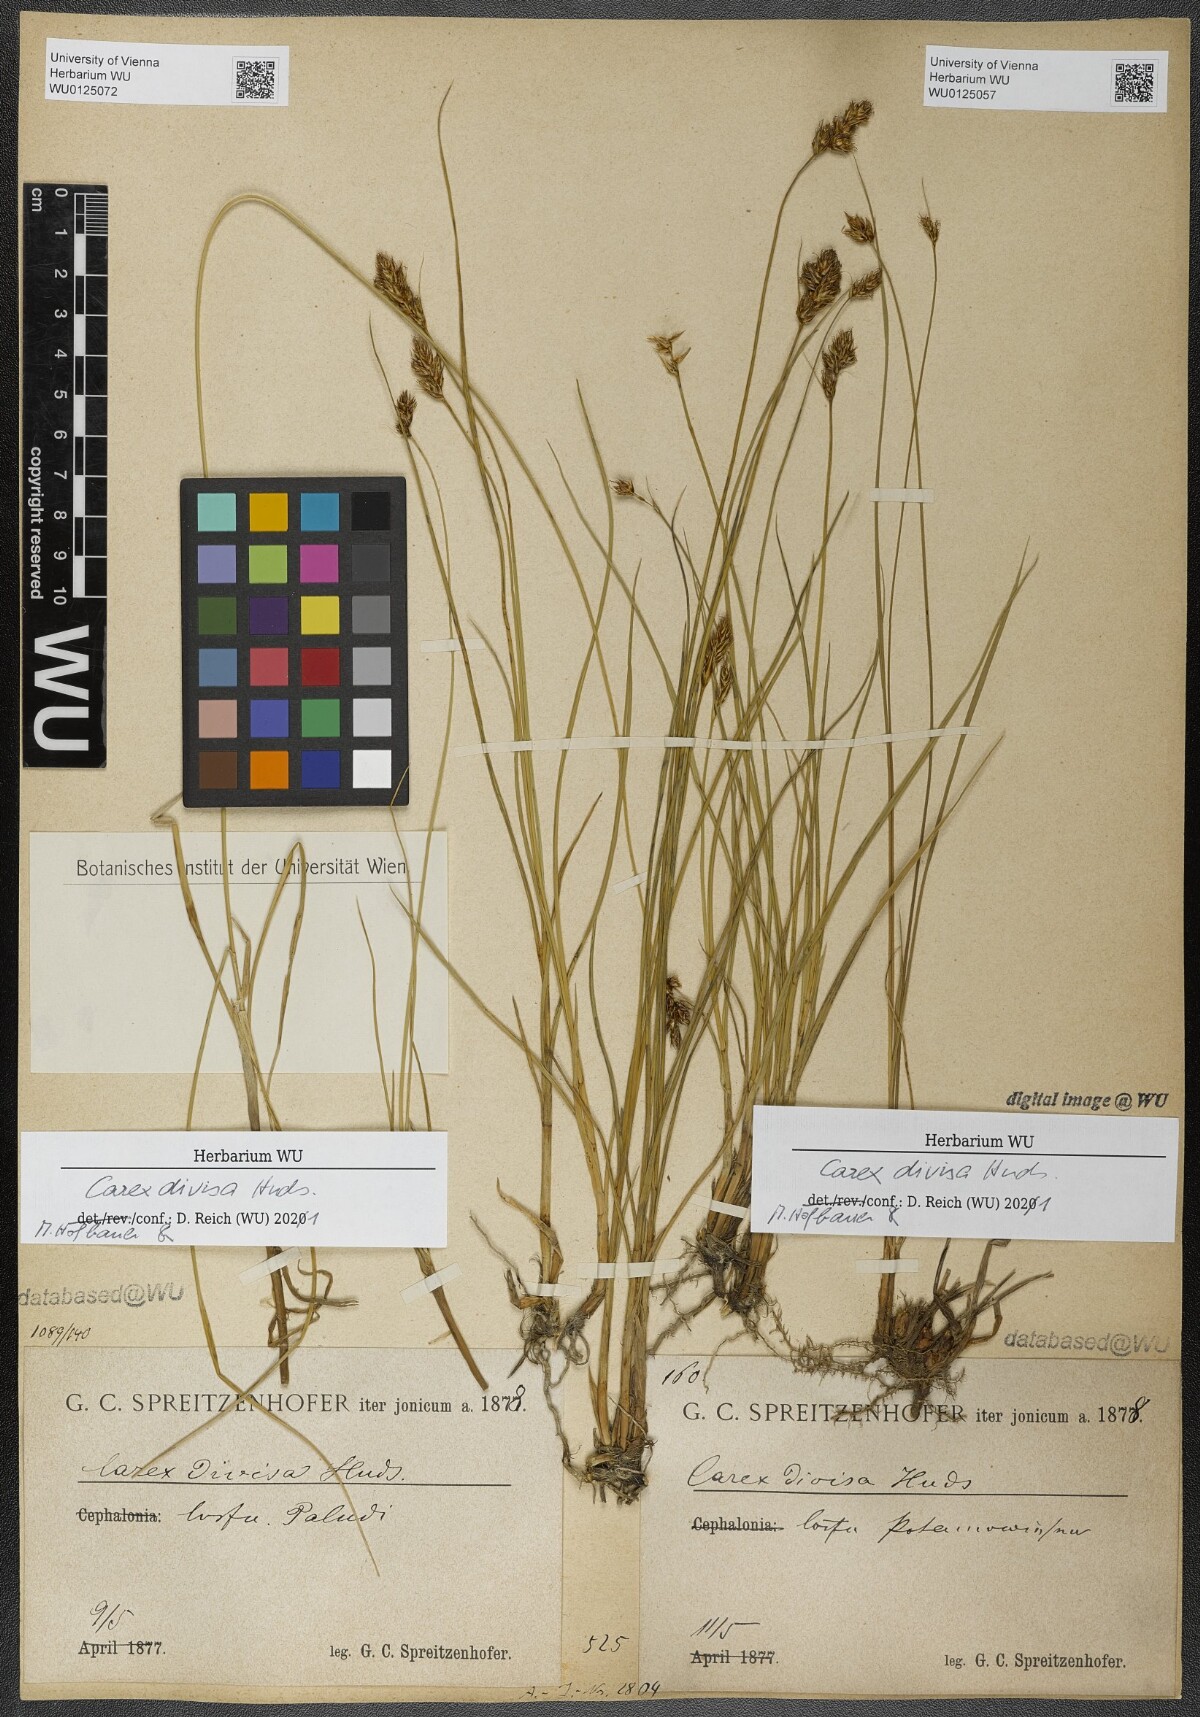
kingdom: Plantae
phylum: Tracheophyta
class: Liliopsida
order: Poales
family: Cyperaceae
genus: Carex
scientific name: Carex divisa
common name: Divided sedge
